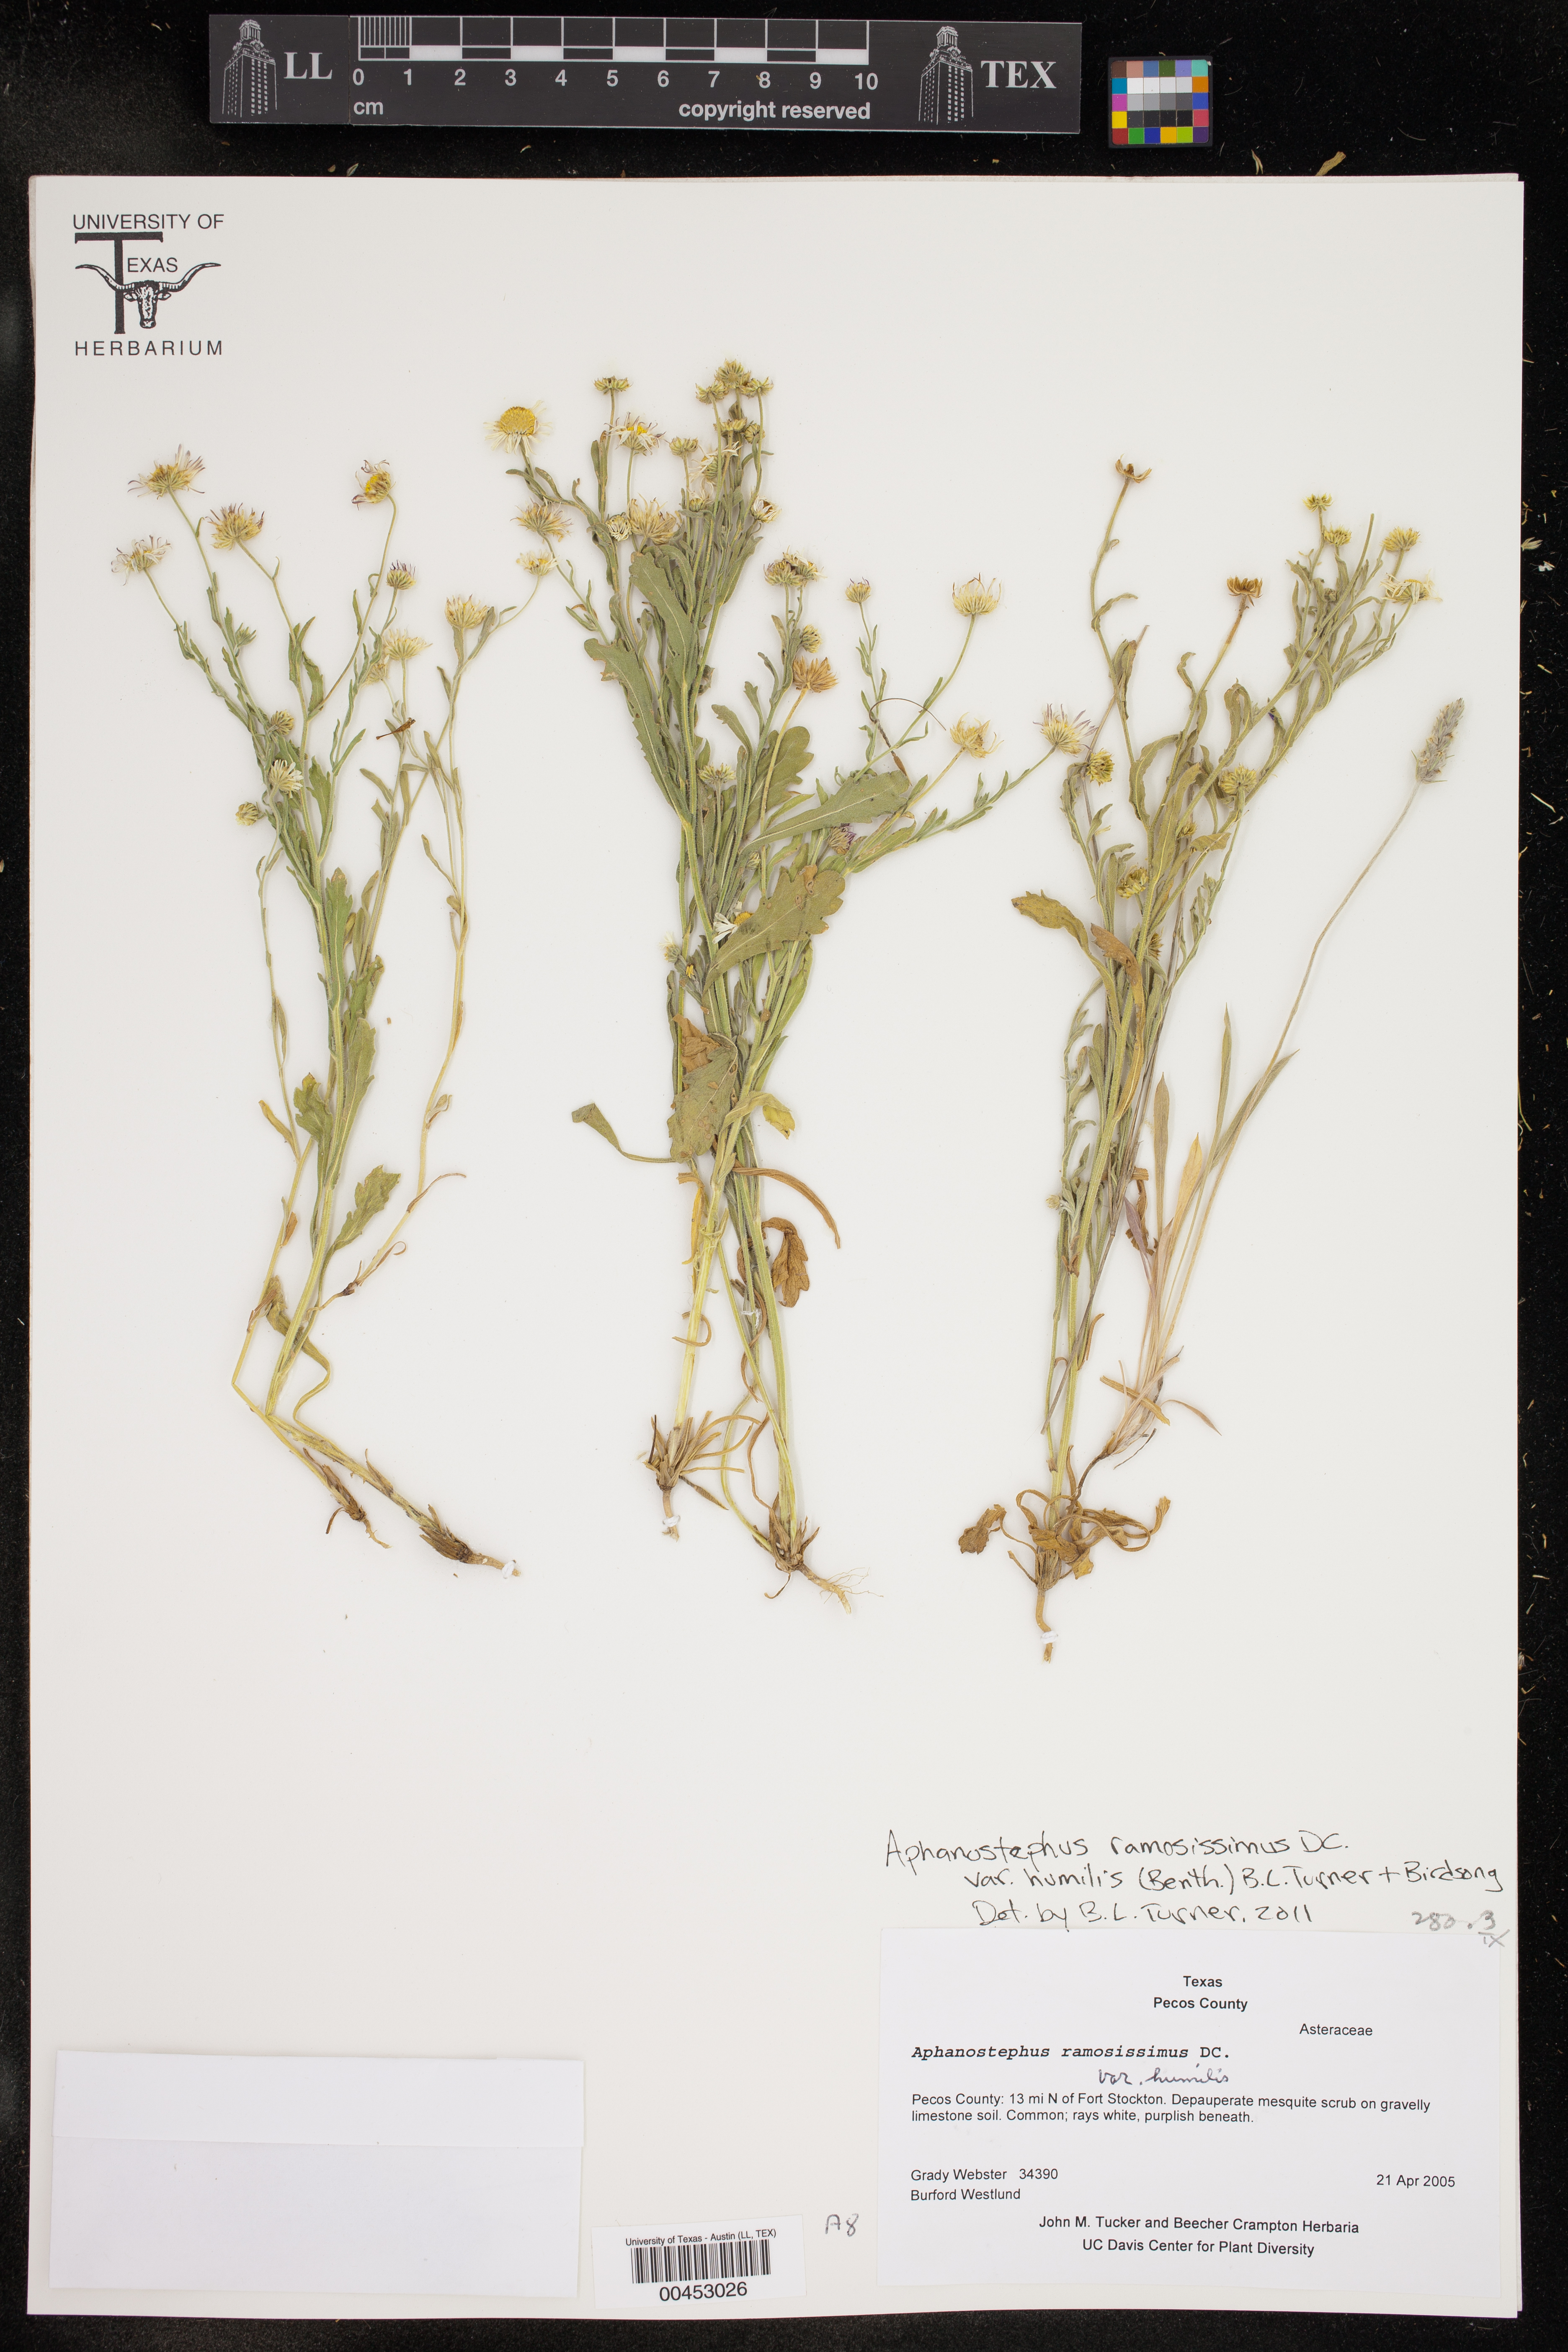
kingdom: Plantae
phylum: Tracheophyta
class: Magnoliopsida
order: Asterales
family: Asteraceae
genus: Aphanostephus
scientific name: Aphanostephus ramosissimus
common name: Plains lazy daisy
